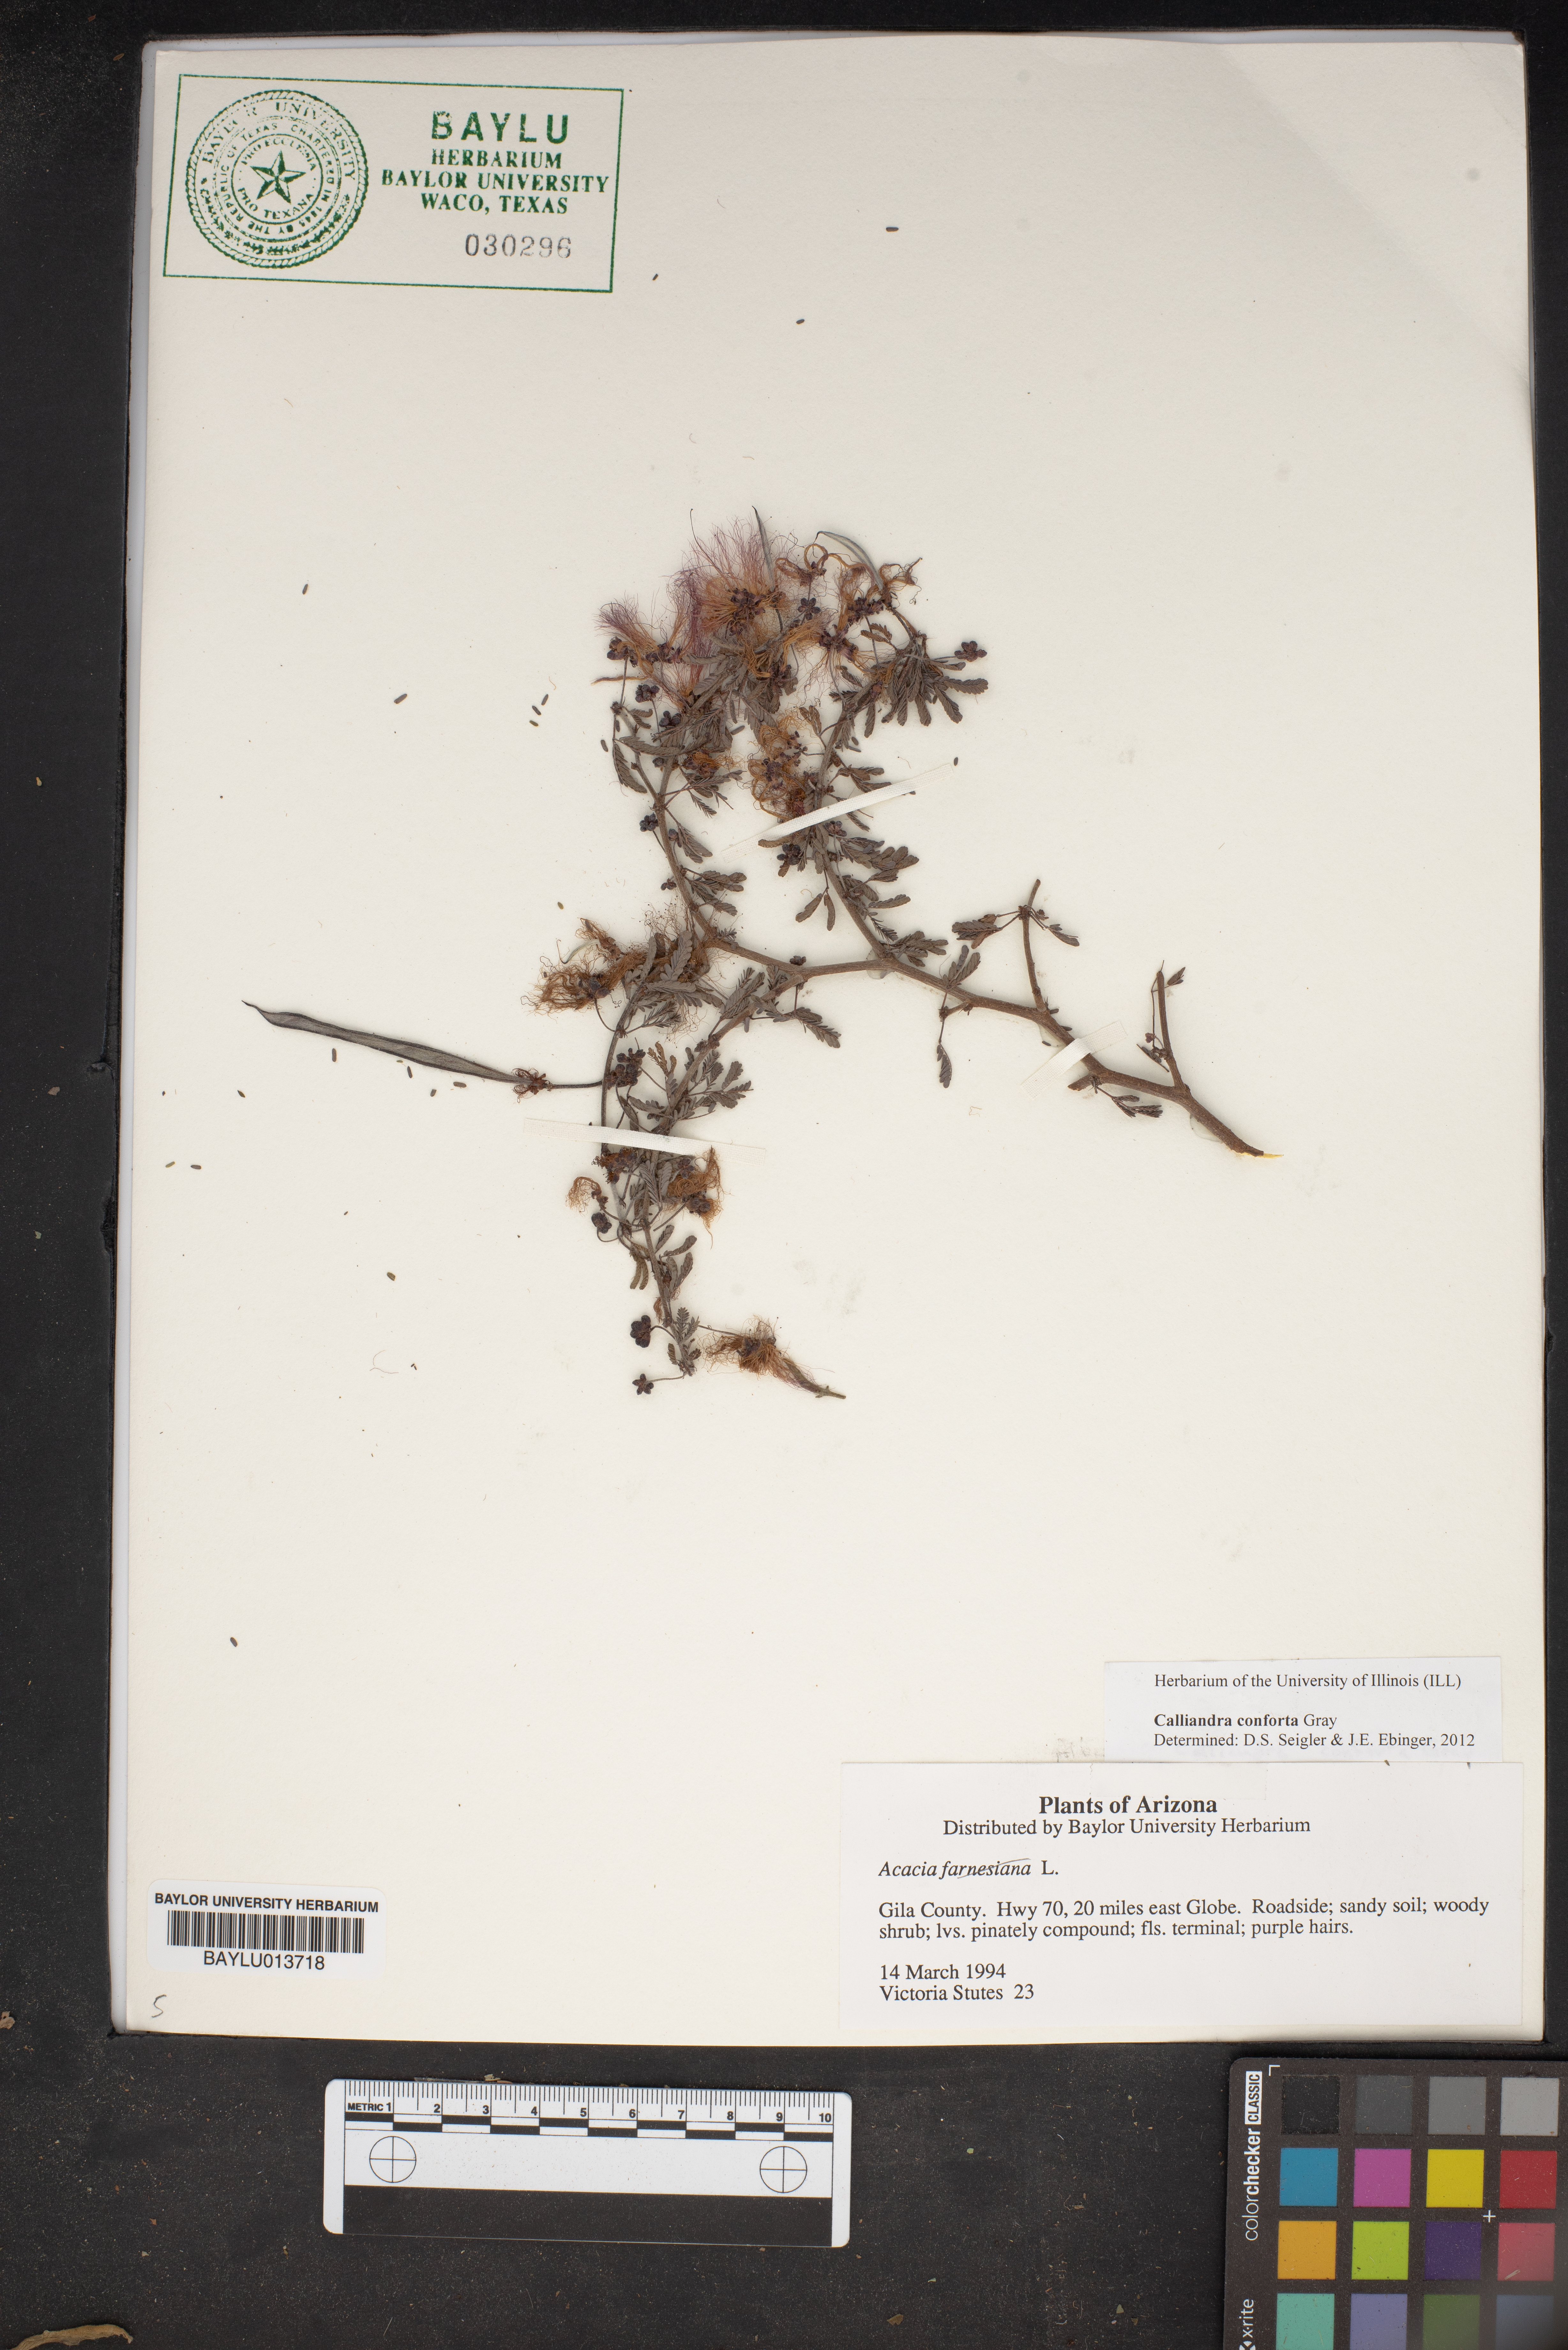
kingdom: Plantae
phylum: Tracheophyta
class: Magnoliopsida
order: Fabales
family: Fabaceae
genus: Calliandra
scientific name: Calliandra conferta
